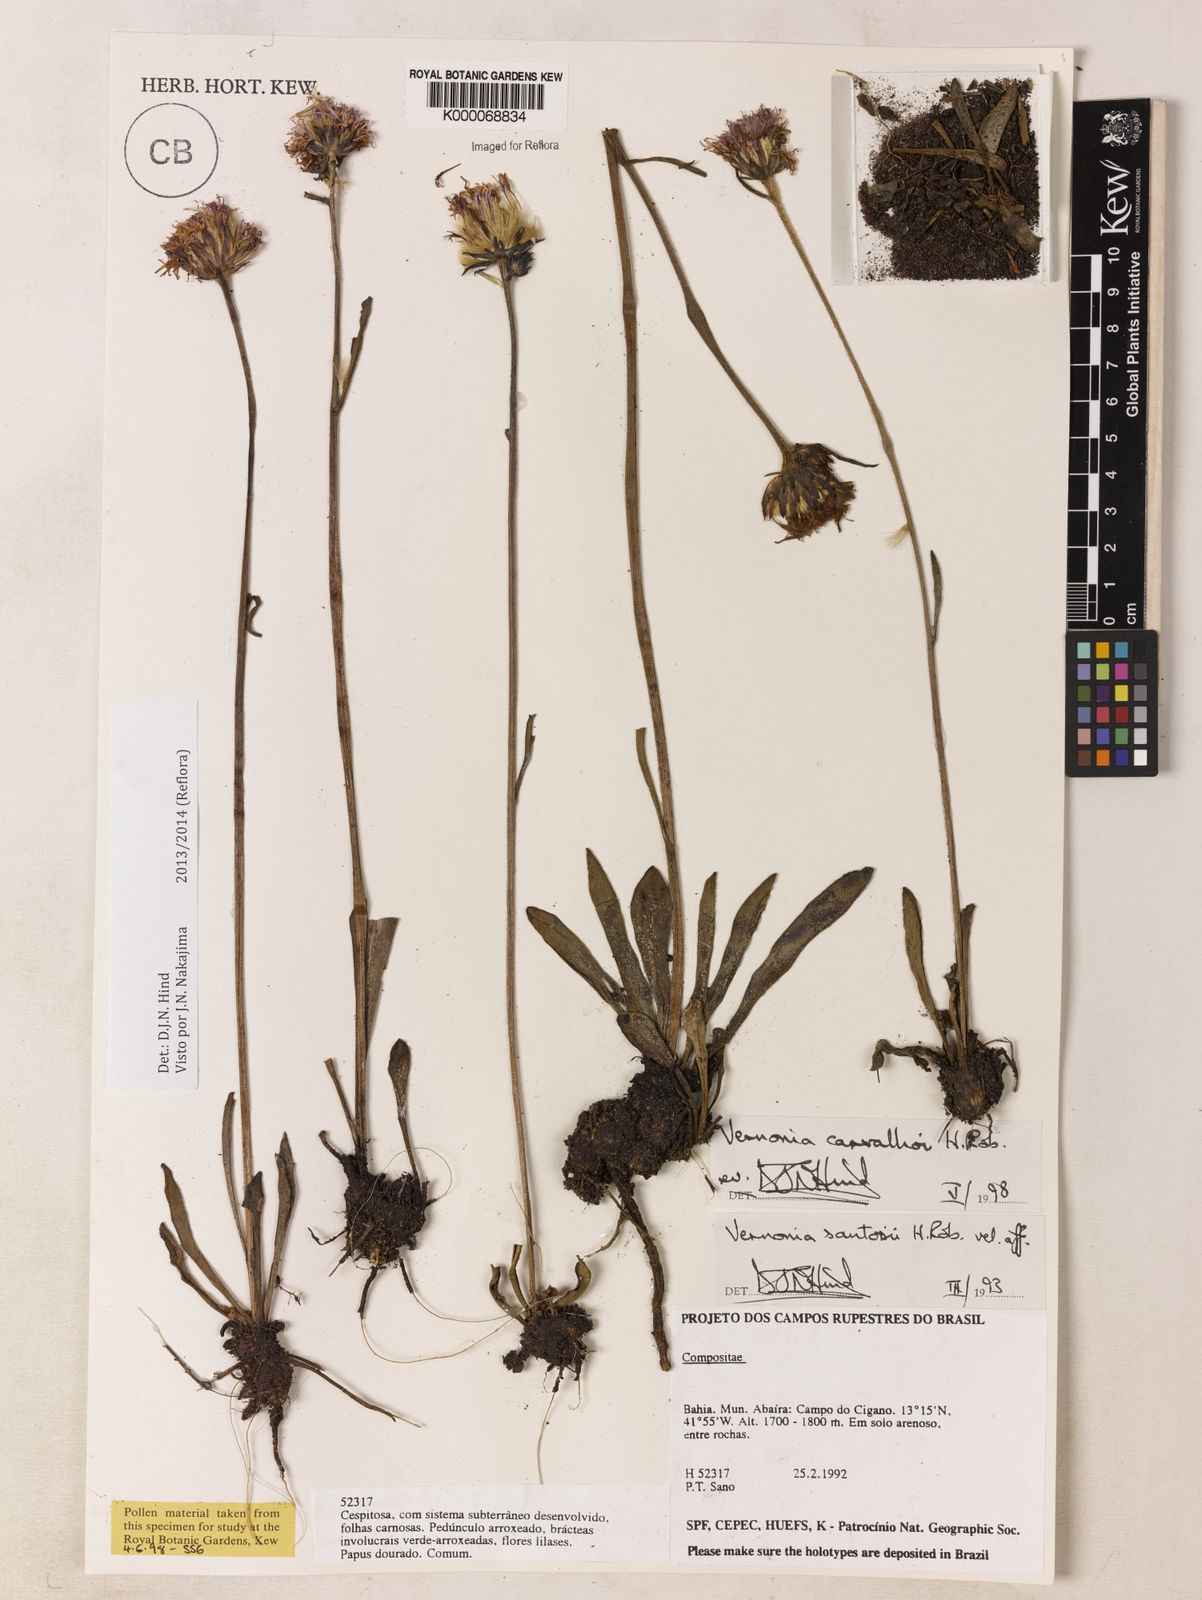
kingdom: Plantae
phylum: Tracheophyta
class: Magnoliopsida
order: Asterales
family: Asteraceae
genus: Lessingianthus
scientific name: Lessingianthus carvalhoi
